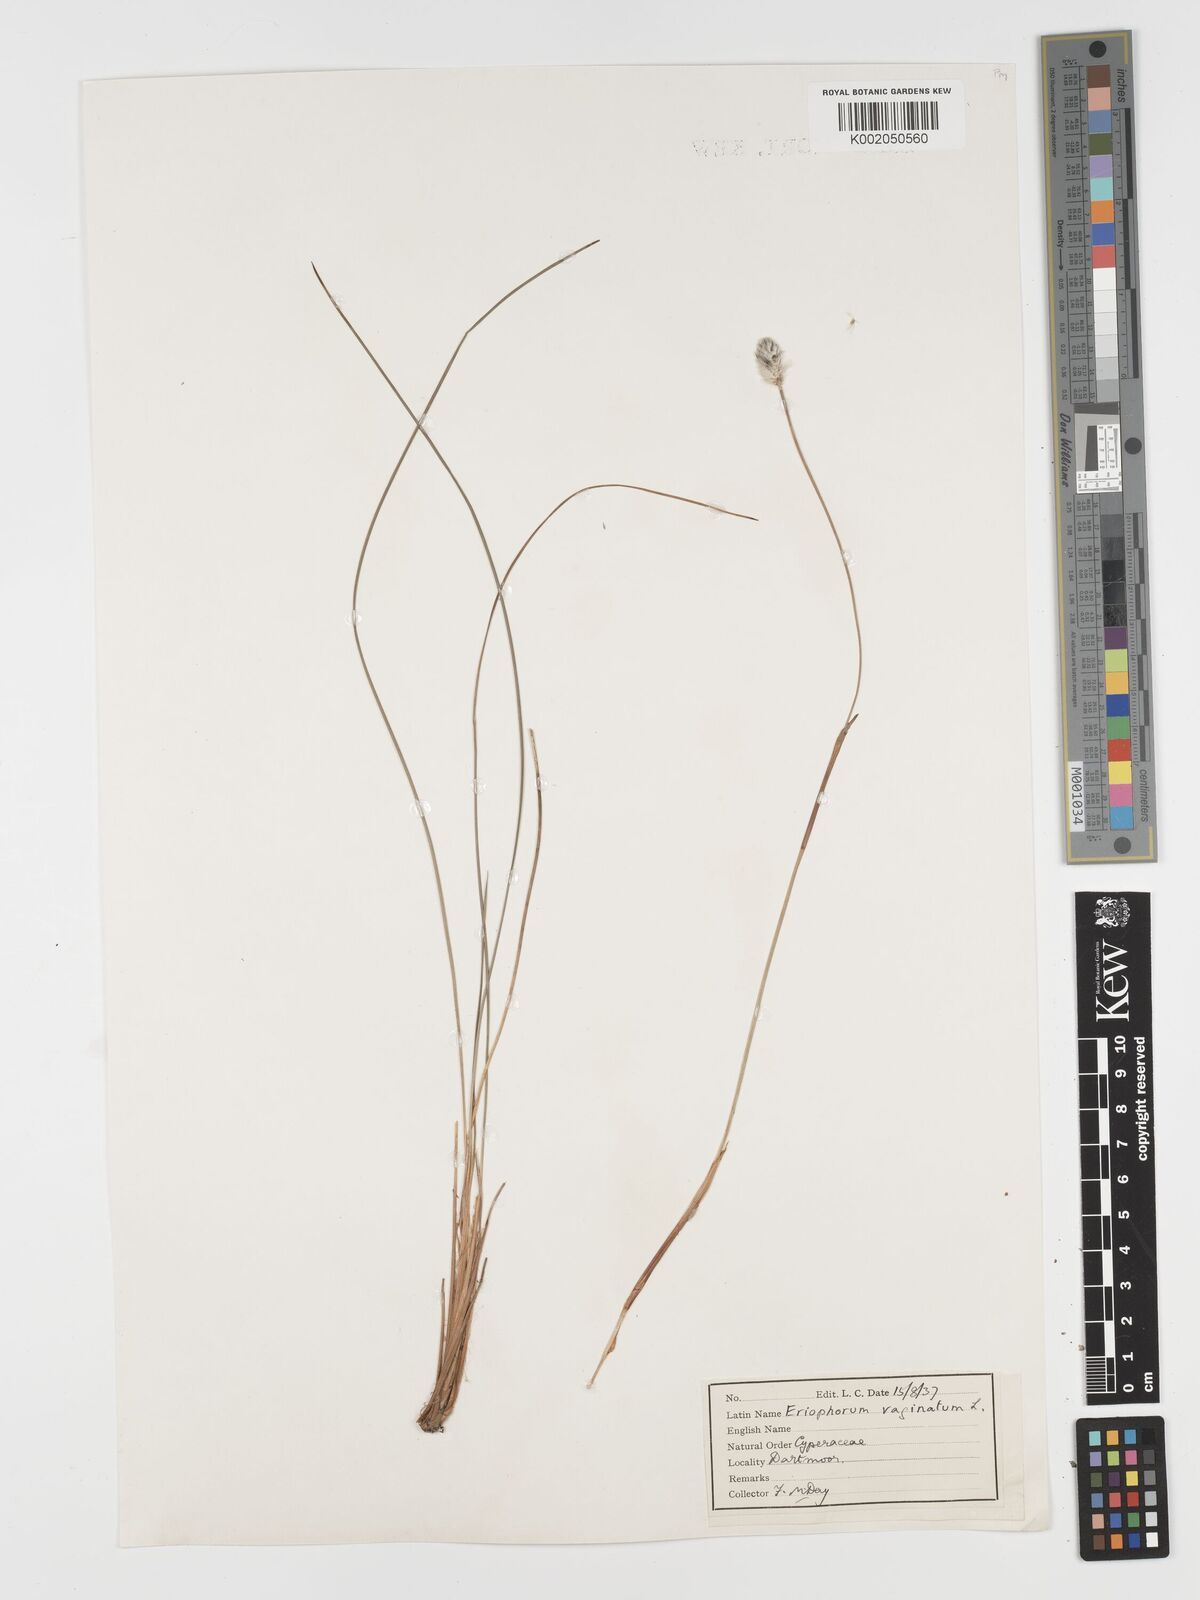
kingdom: Plantae
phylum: Tracheophyta
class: Liliopsida
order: Poales
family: Cyperaceae
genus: Eriophorum
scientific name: Eriophorum vaginatum
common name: Hare's-tail cottongrass
